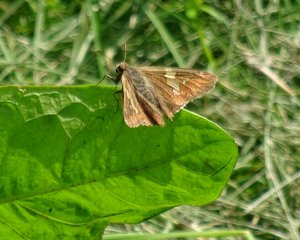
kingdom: Animalia
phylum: Arthropoda
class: Insecta
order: Lepidoptera
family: Hesperiidae
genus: Epargyreus
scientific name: Epargyreus clarus
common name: Silver-spotted Skipper
